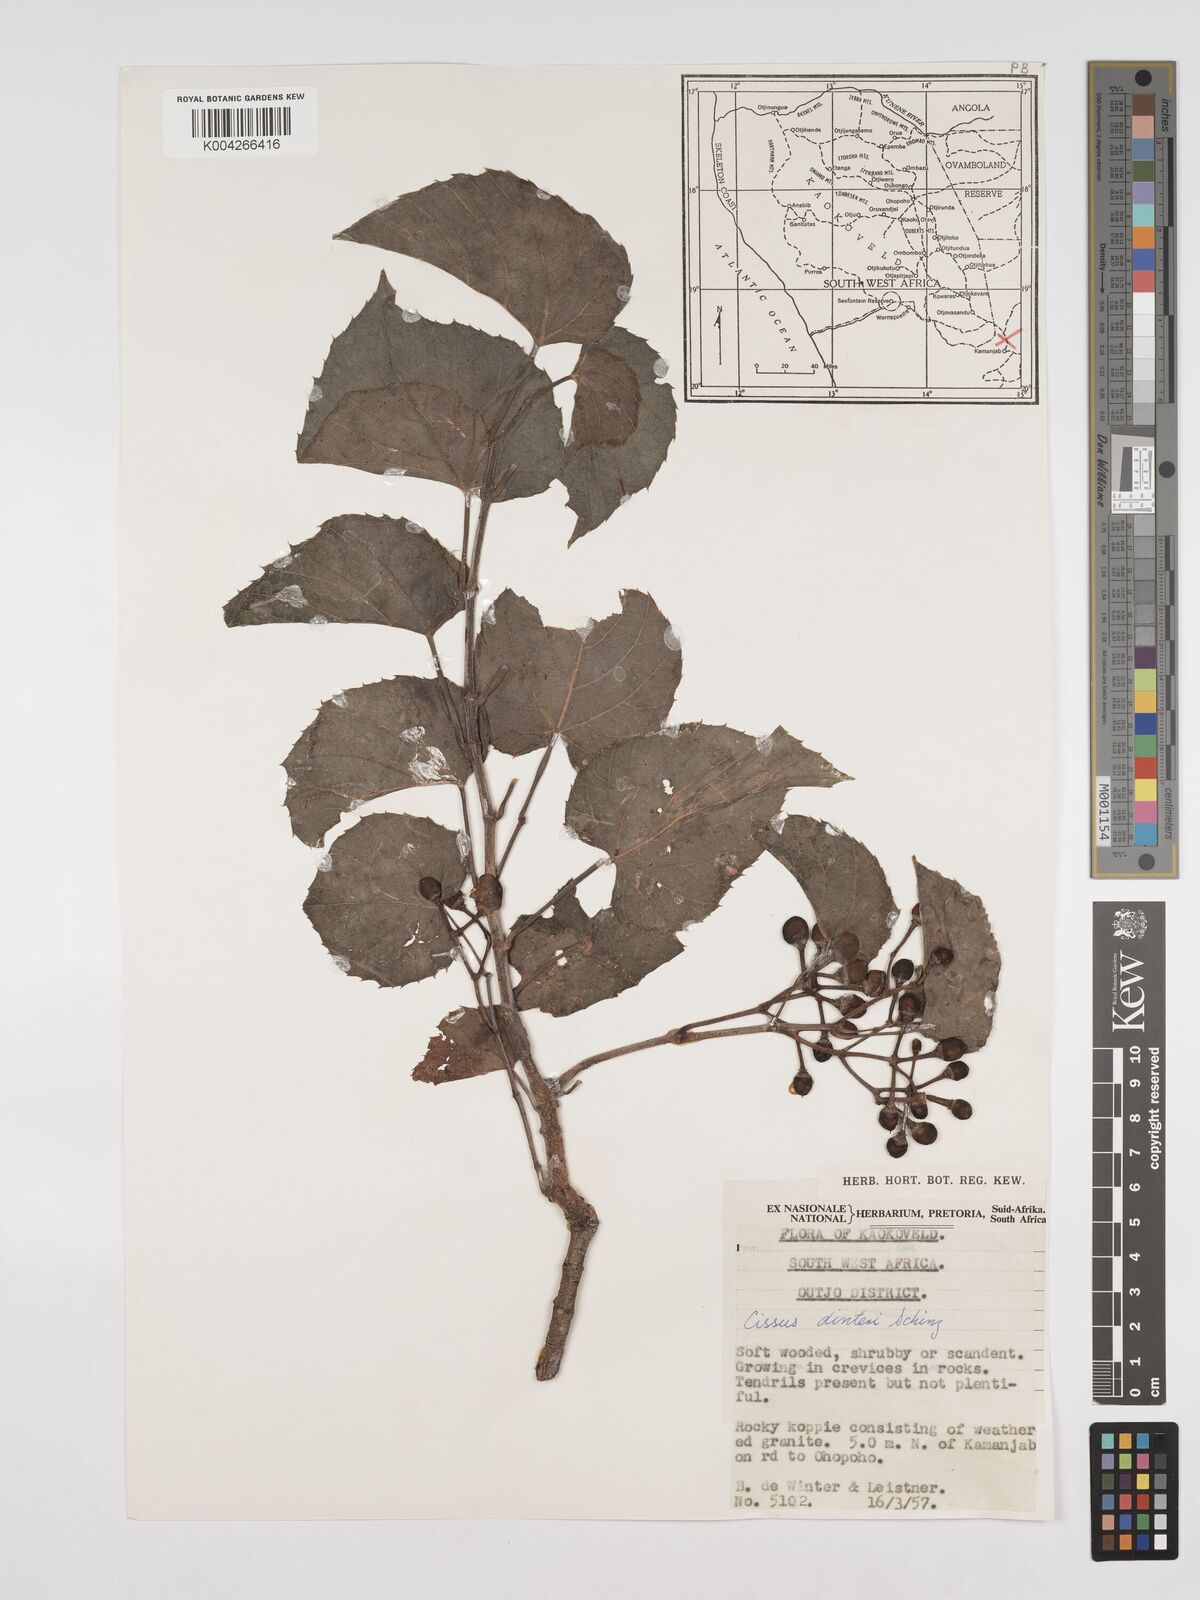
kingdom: Plantae
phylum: Tracheophyta
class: Magnoliopsida
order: Vitales
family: Vitaceae
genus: Cissus
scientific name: Cissus nymphaeifolia
